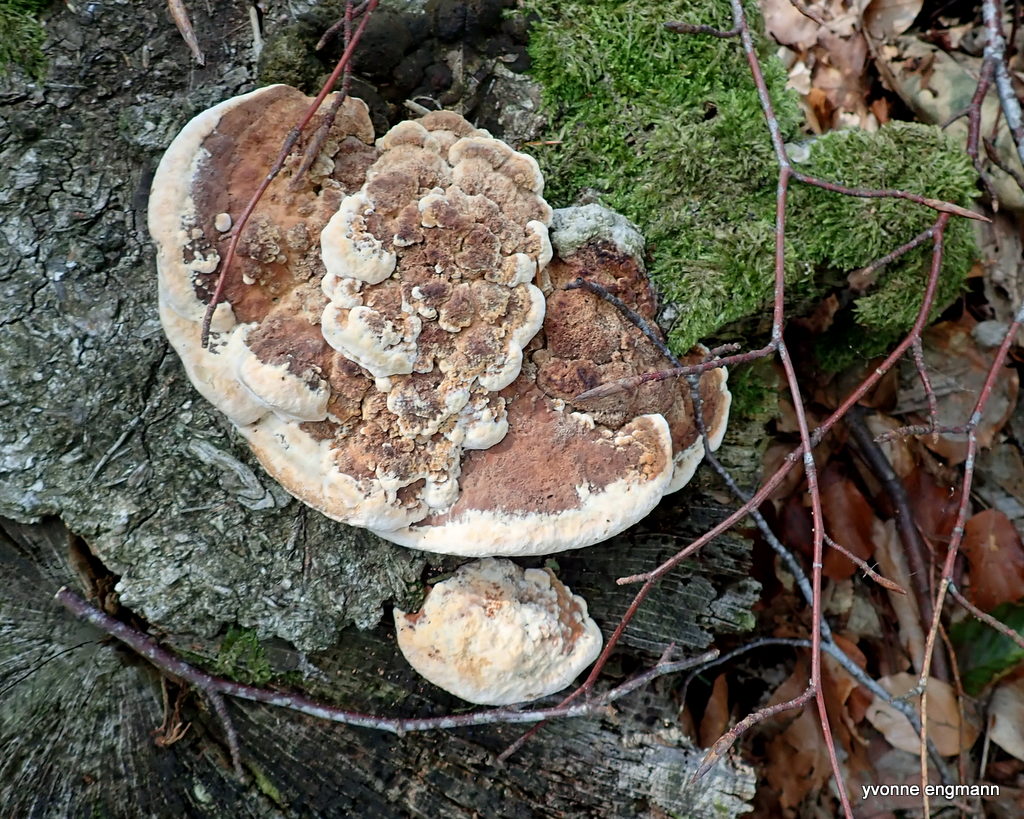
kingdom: Fungi
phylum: Basidiomycota
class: Agaricomycetes
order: Polyporales
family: Fomitopsidaceae
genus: Daedalea
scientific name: Daedalea quercina
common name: ege-labyrintsvamp
